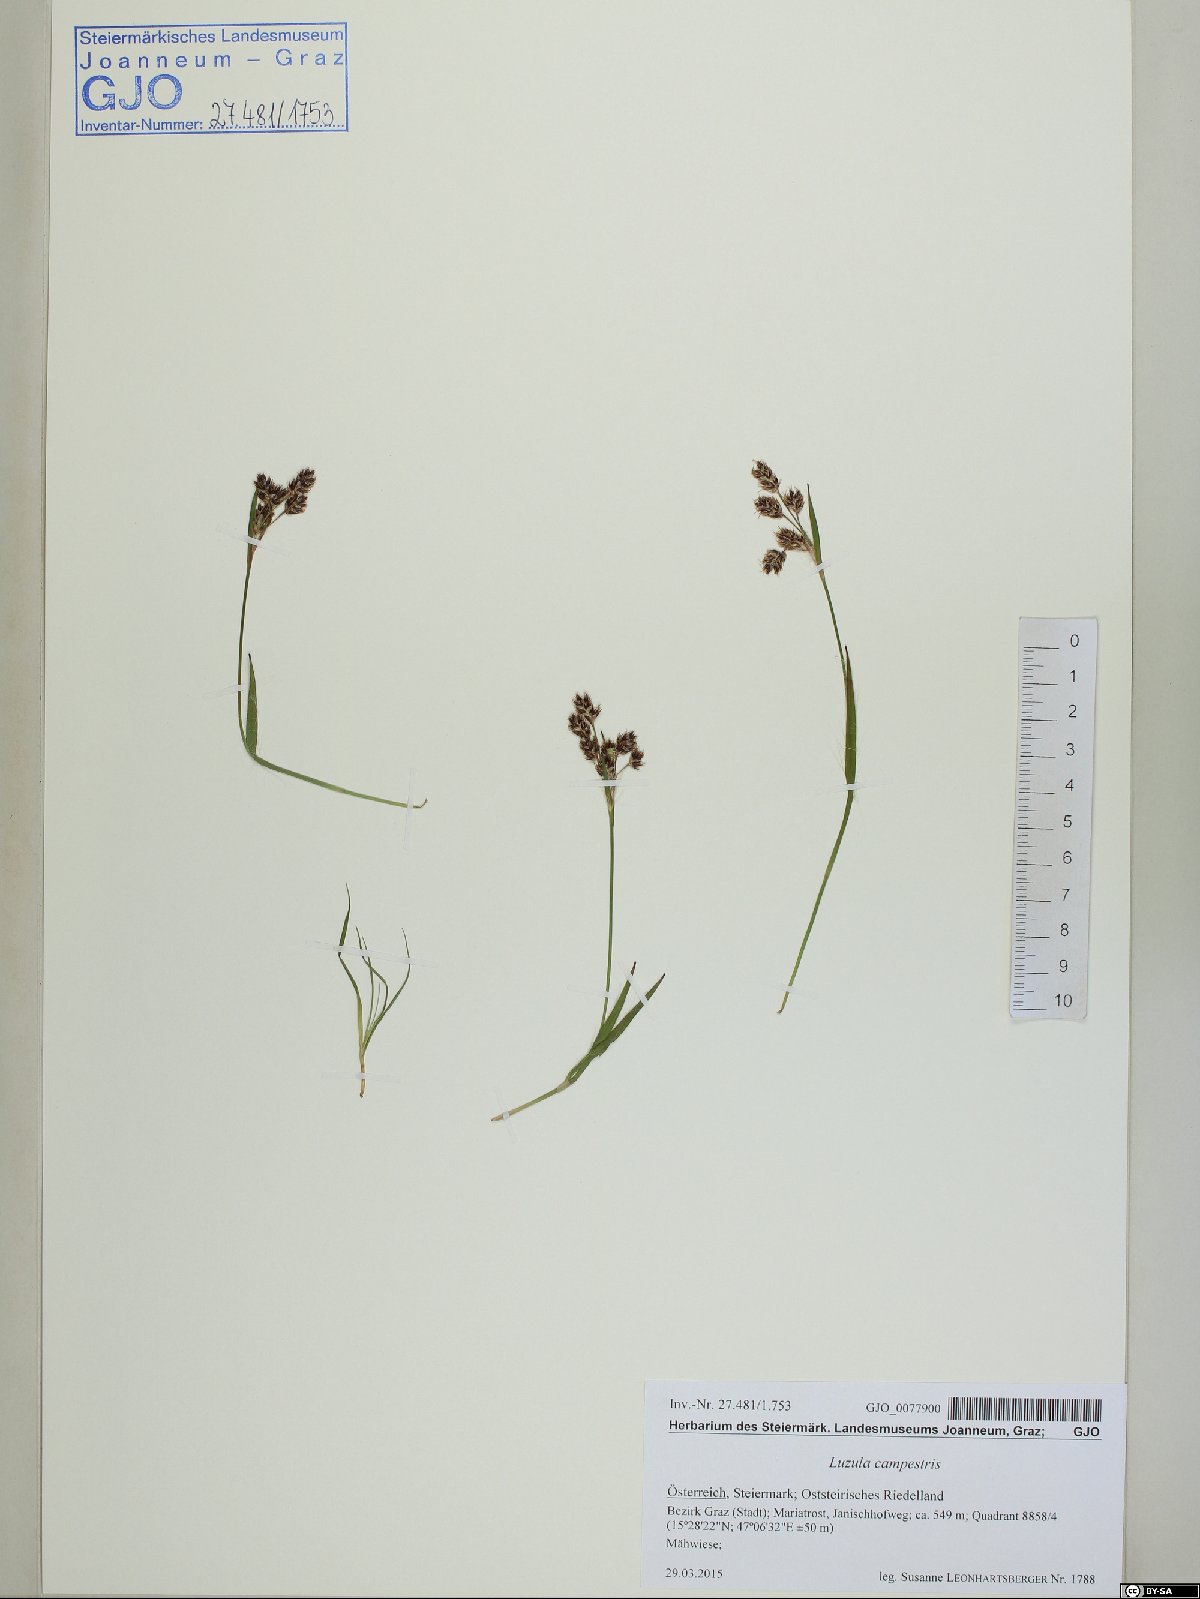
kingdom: Plantae
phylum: Tracheophyta
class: Liliopsida
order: Poales
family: Juncaceae
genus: Luzula
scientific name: Luzula campestris
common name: Field wood-rush
